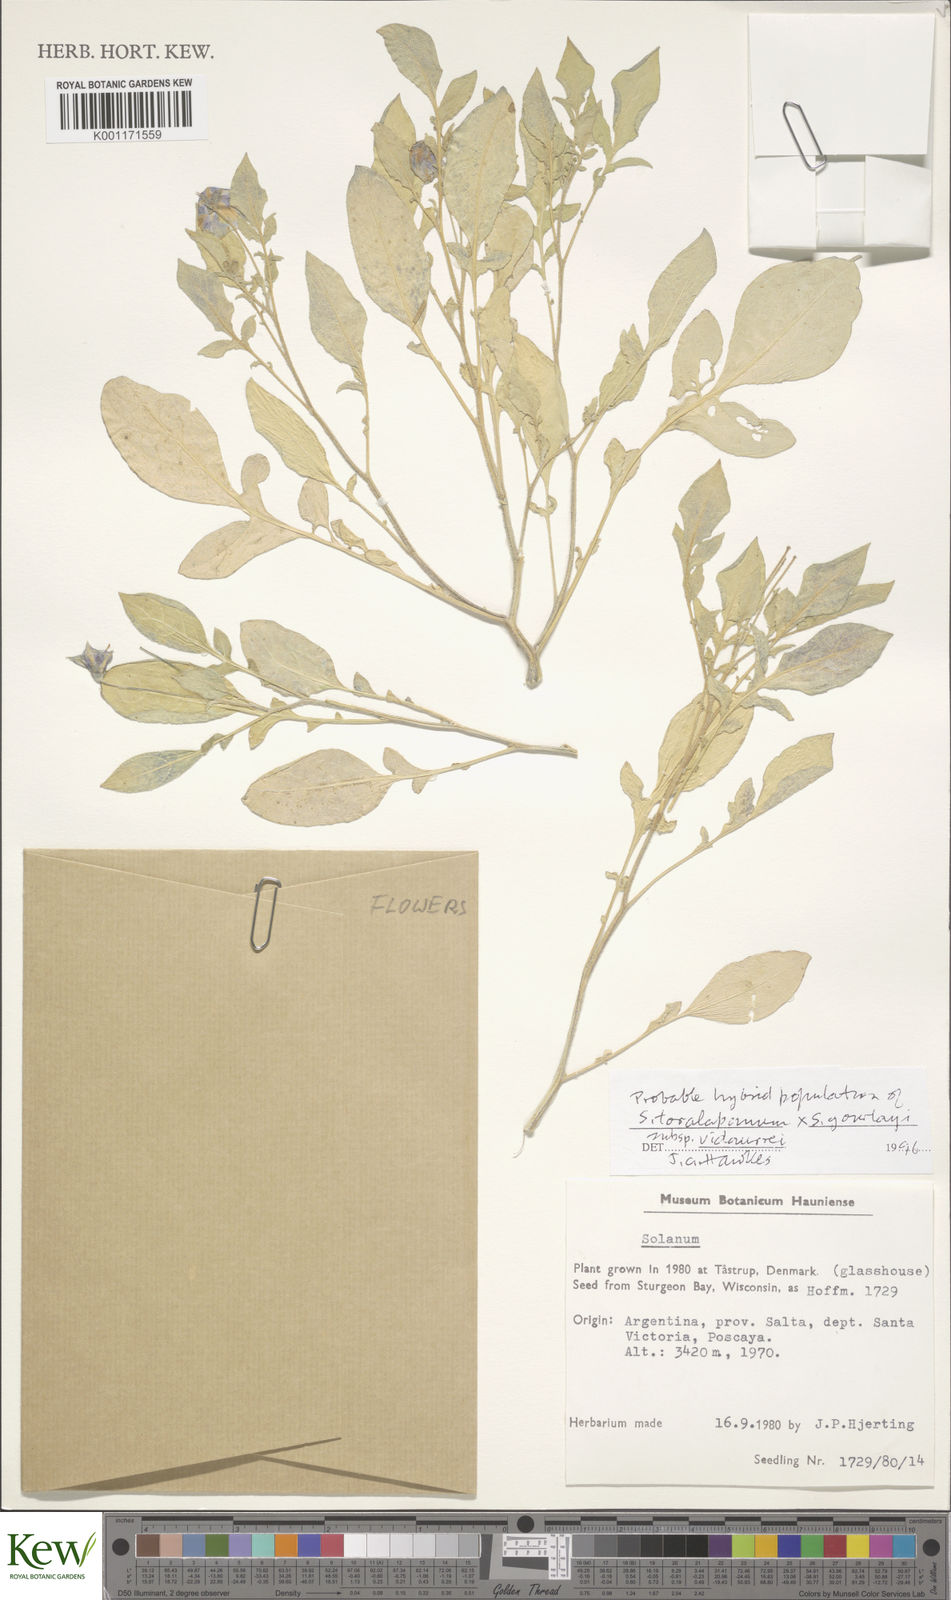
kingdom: Plantae
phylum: Tracheophyta
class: Magnoliopsida
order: Solanales
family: Solanaceae
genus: Solanum
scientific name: Solanum brevicaule
